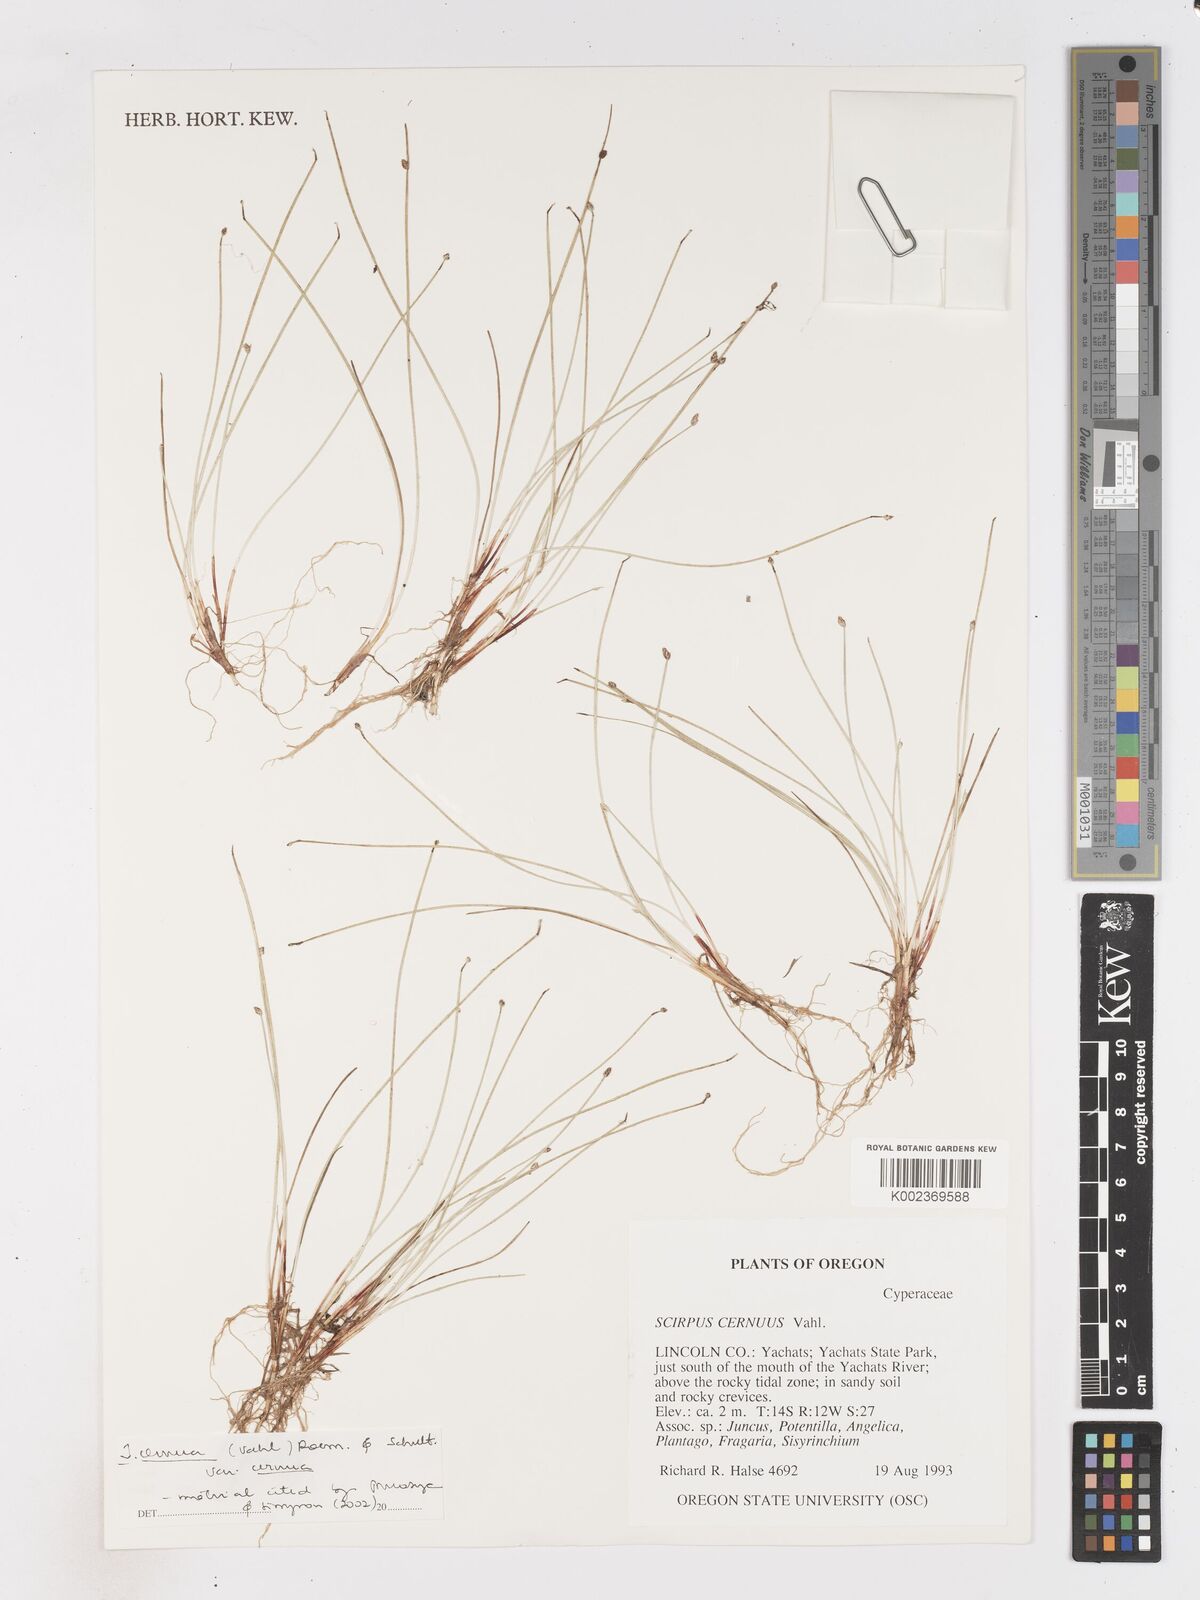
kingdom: Plantae
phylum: Tracheophyta
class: Liliopsida
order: Poales
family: Cyperaceae
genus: Isolepis
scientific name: Isolepis cernua
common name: Slender club-rush
